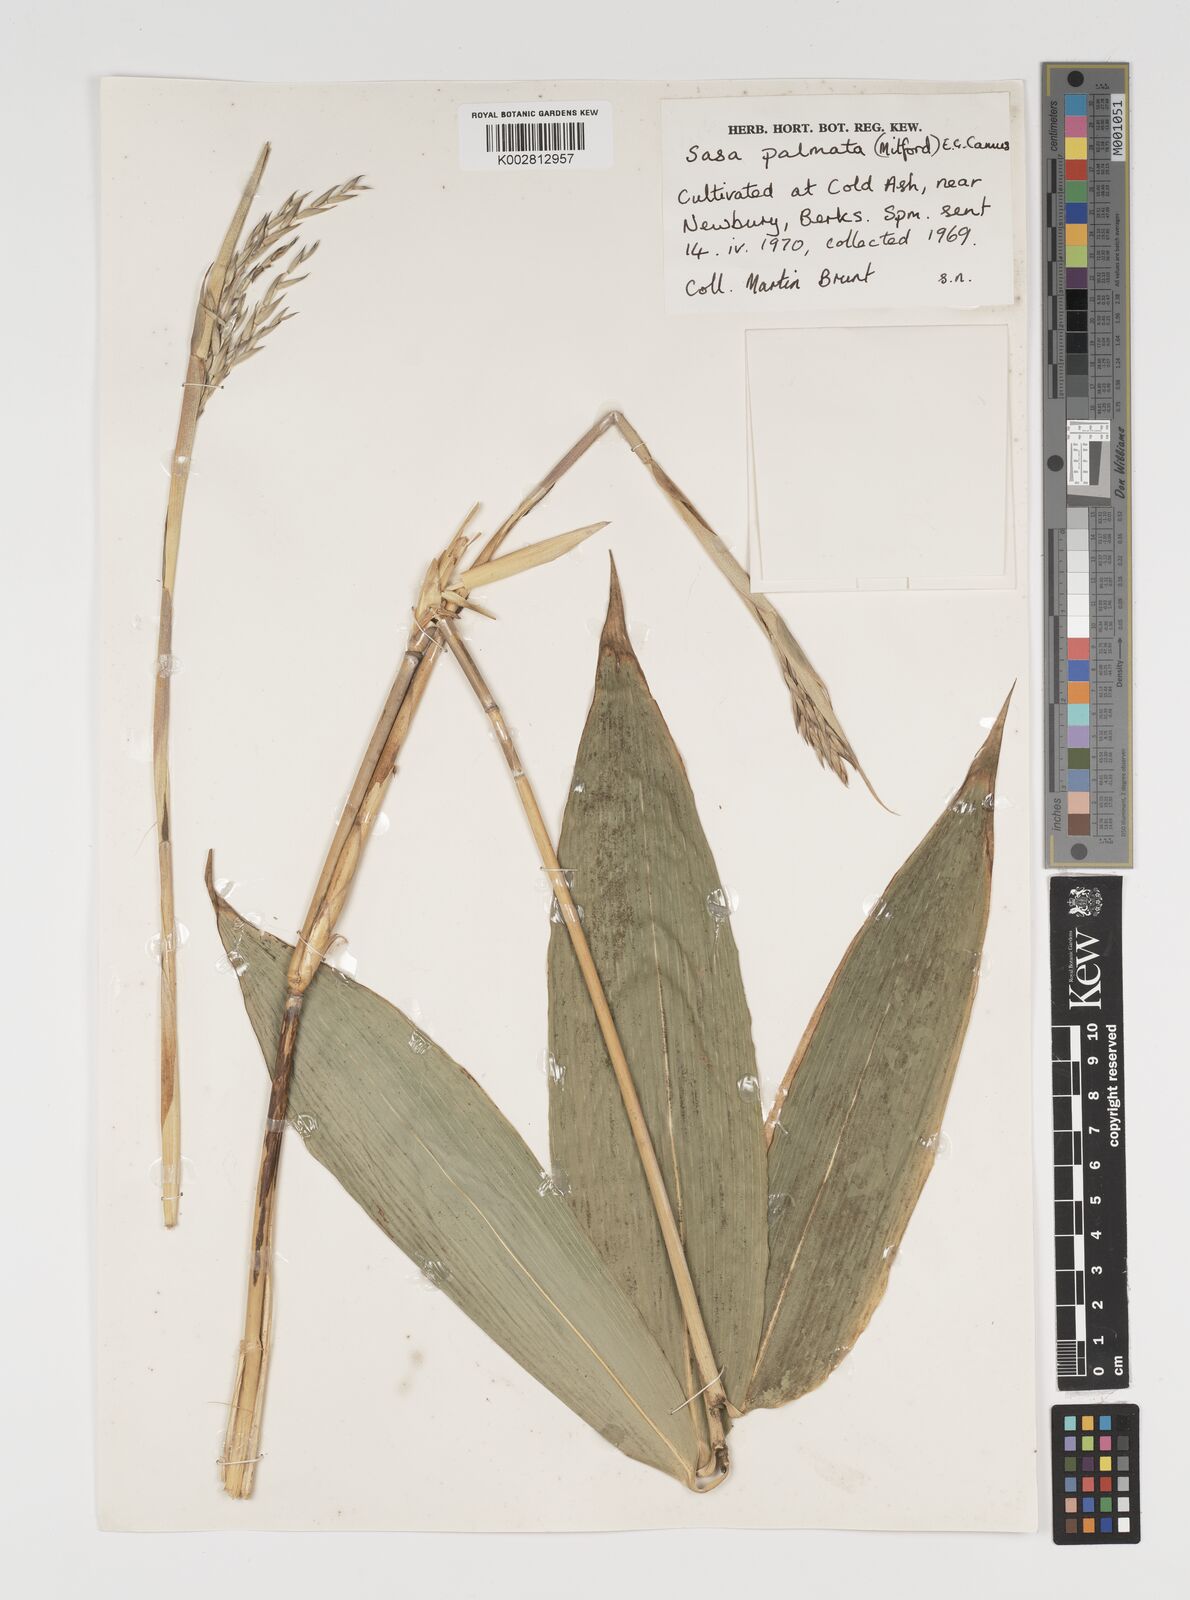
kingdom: Plantae
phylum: Tracheophyta
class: Liliopsida
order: Poales
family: Poaceae
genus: Sasa
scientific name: Sasa palmata
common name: Broad-leaved bamboo
